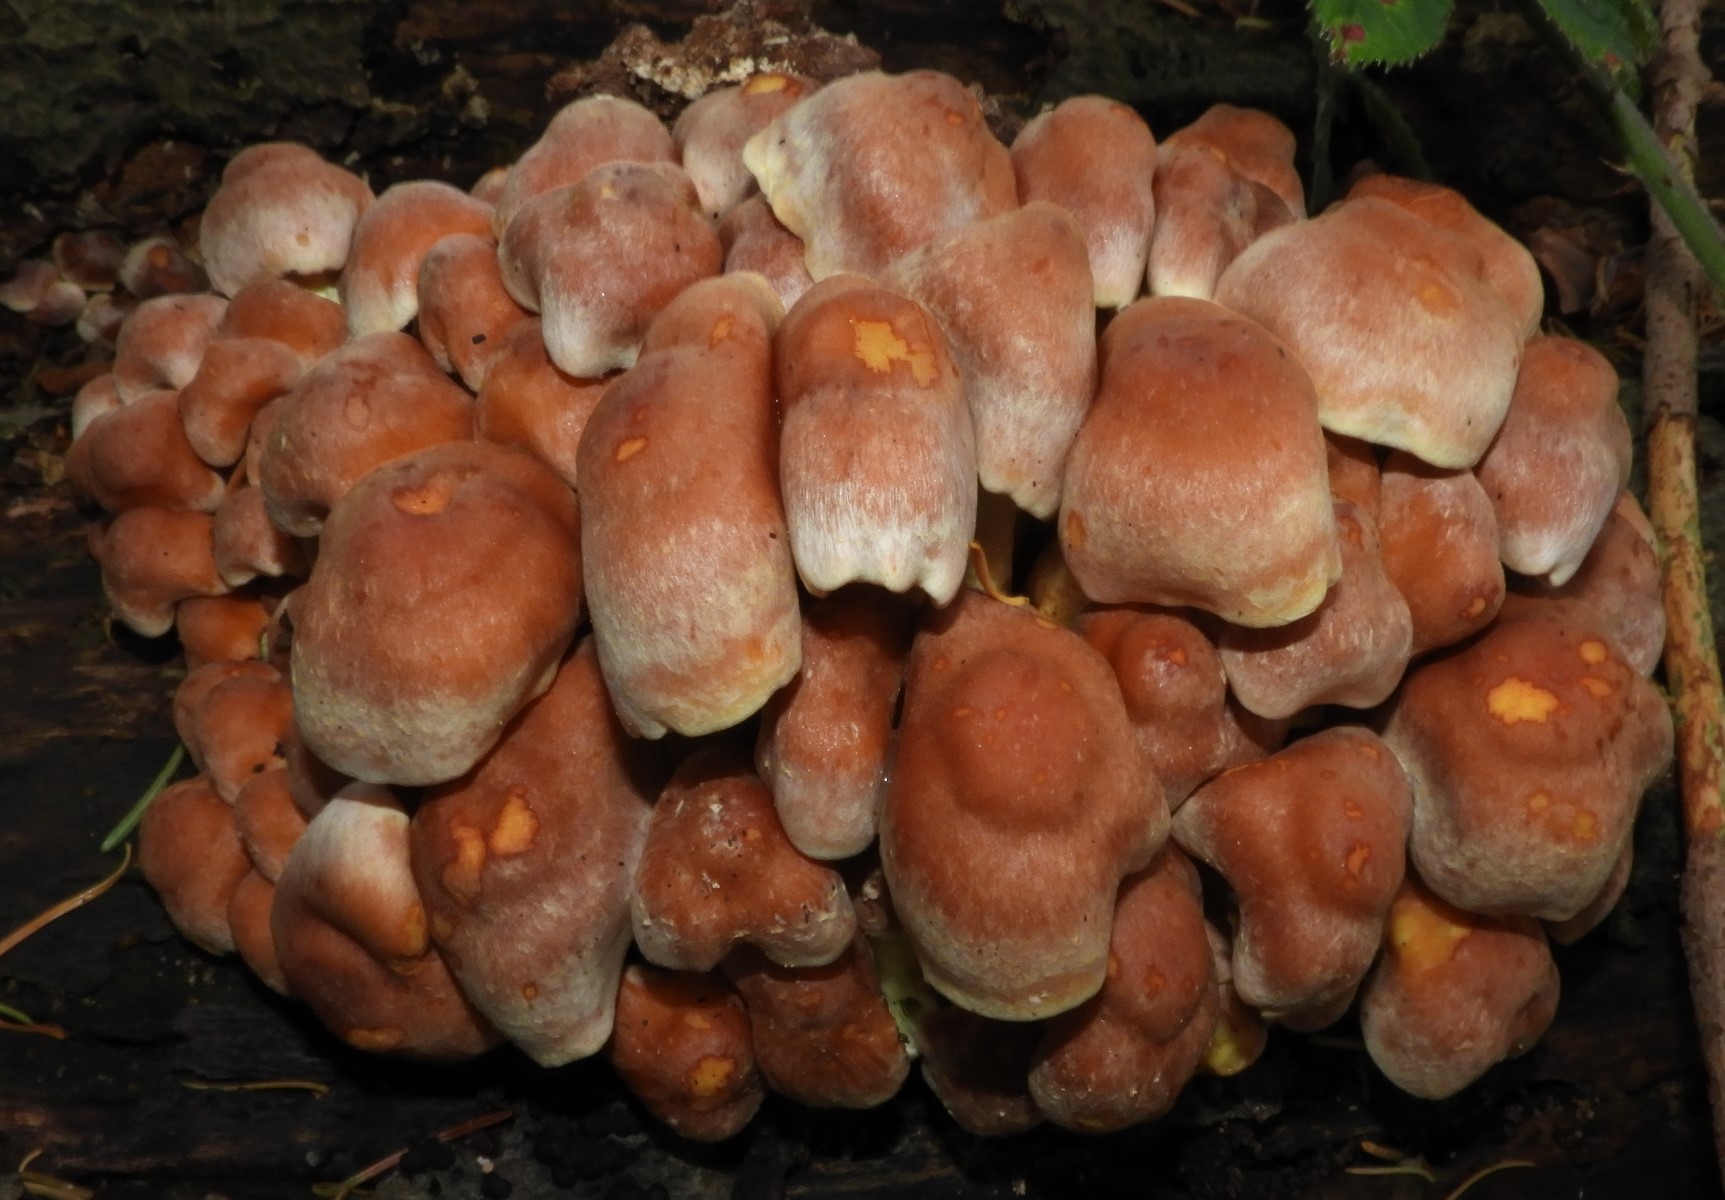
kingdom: Fungi
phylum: Basidiomycota
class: Agaricomycetes
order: Agaricales
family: Strophariaceae
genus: Hypholoma
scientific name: Hypholoma lateritium
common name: teglrød svovlhat
